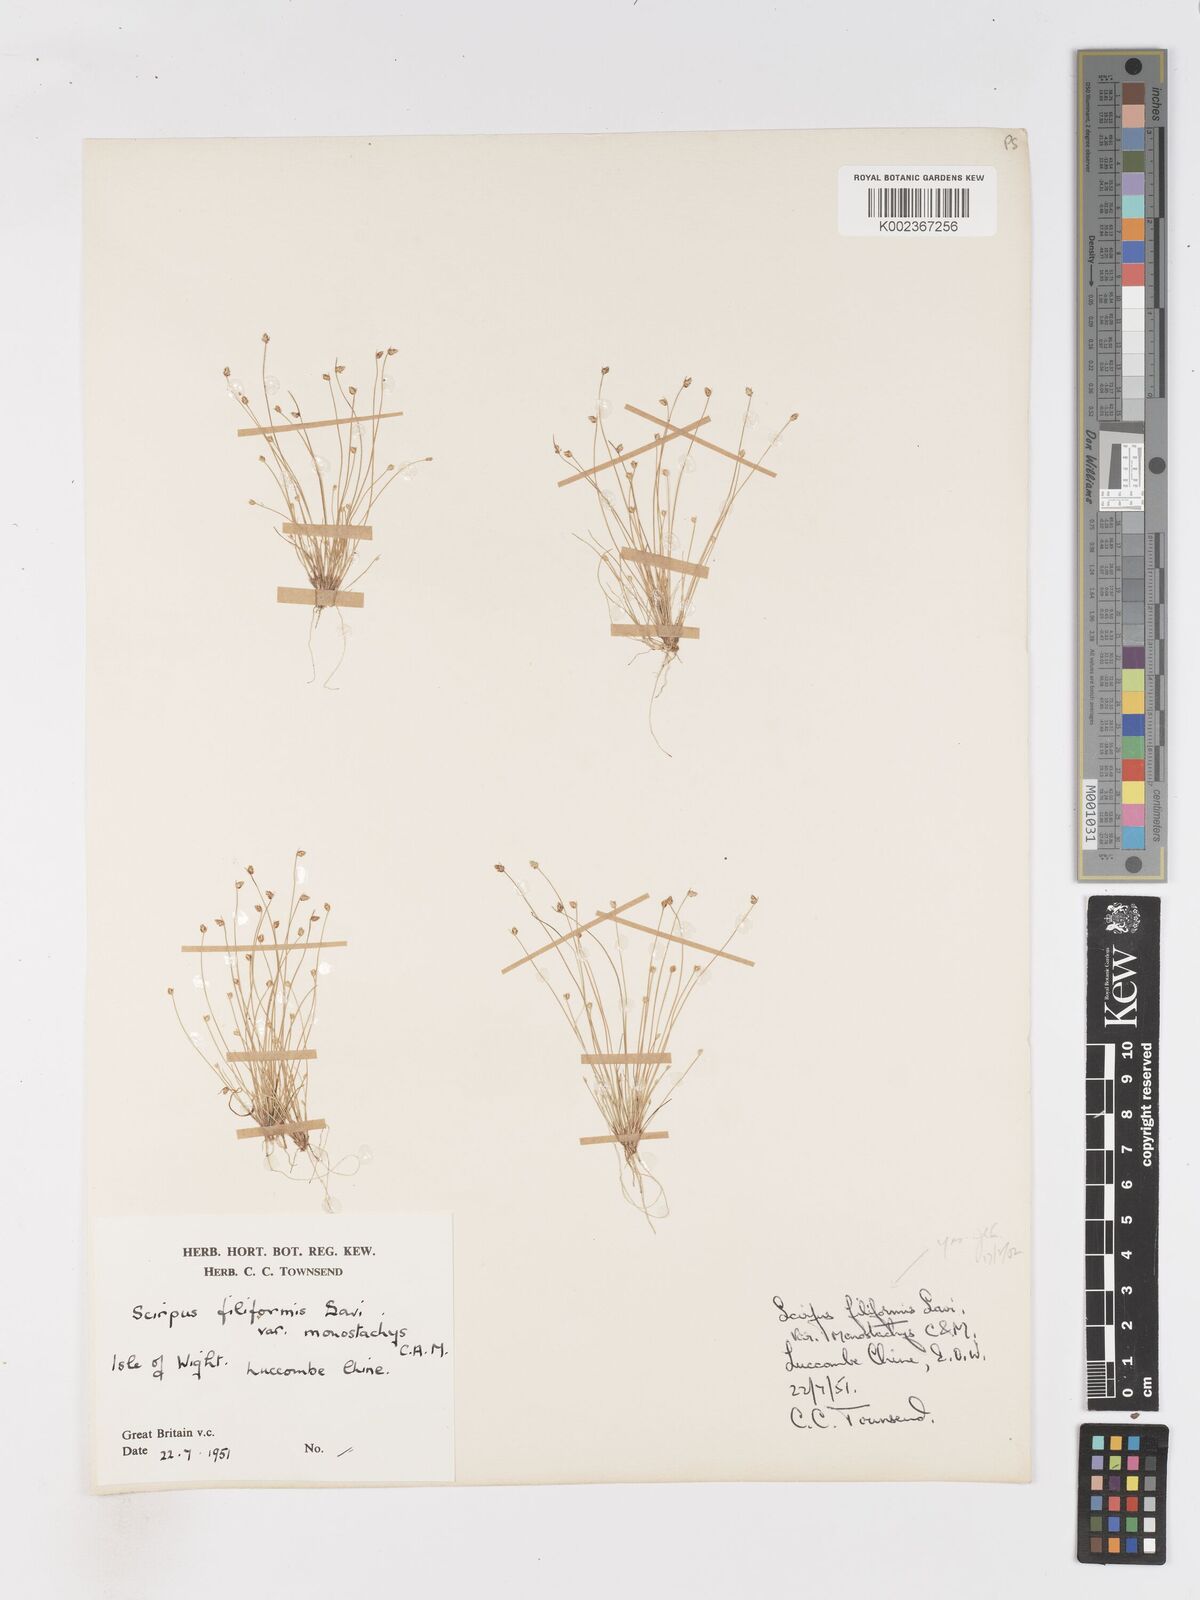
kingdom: Plantae
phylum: Tracheophyta
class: Liliopsida
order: Poales
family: Cyperaceae
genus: Isolepis
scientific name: Isolepis cernua
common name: Slender club-rush
